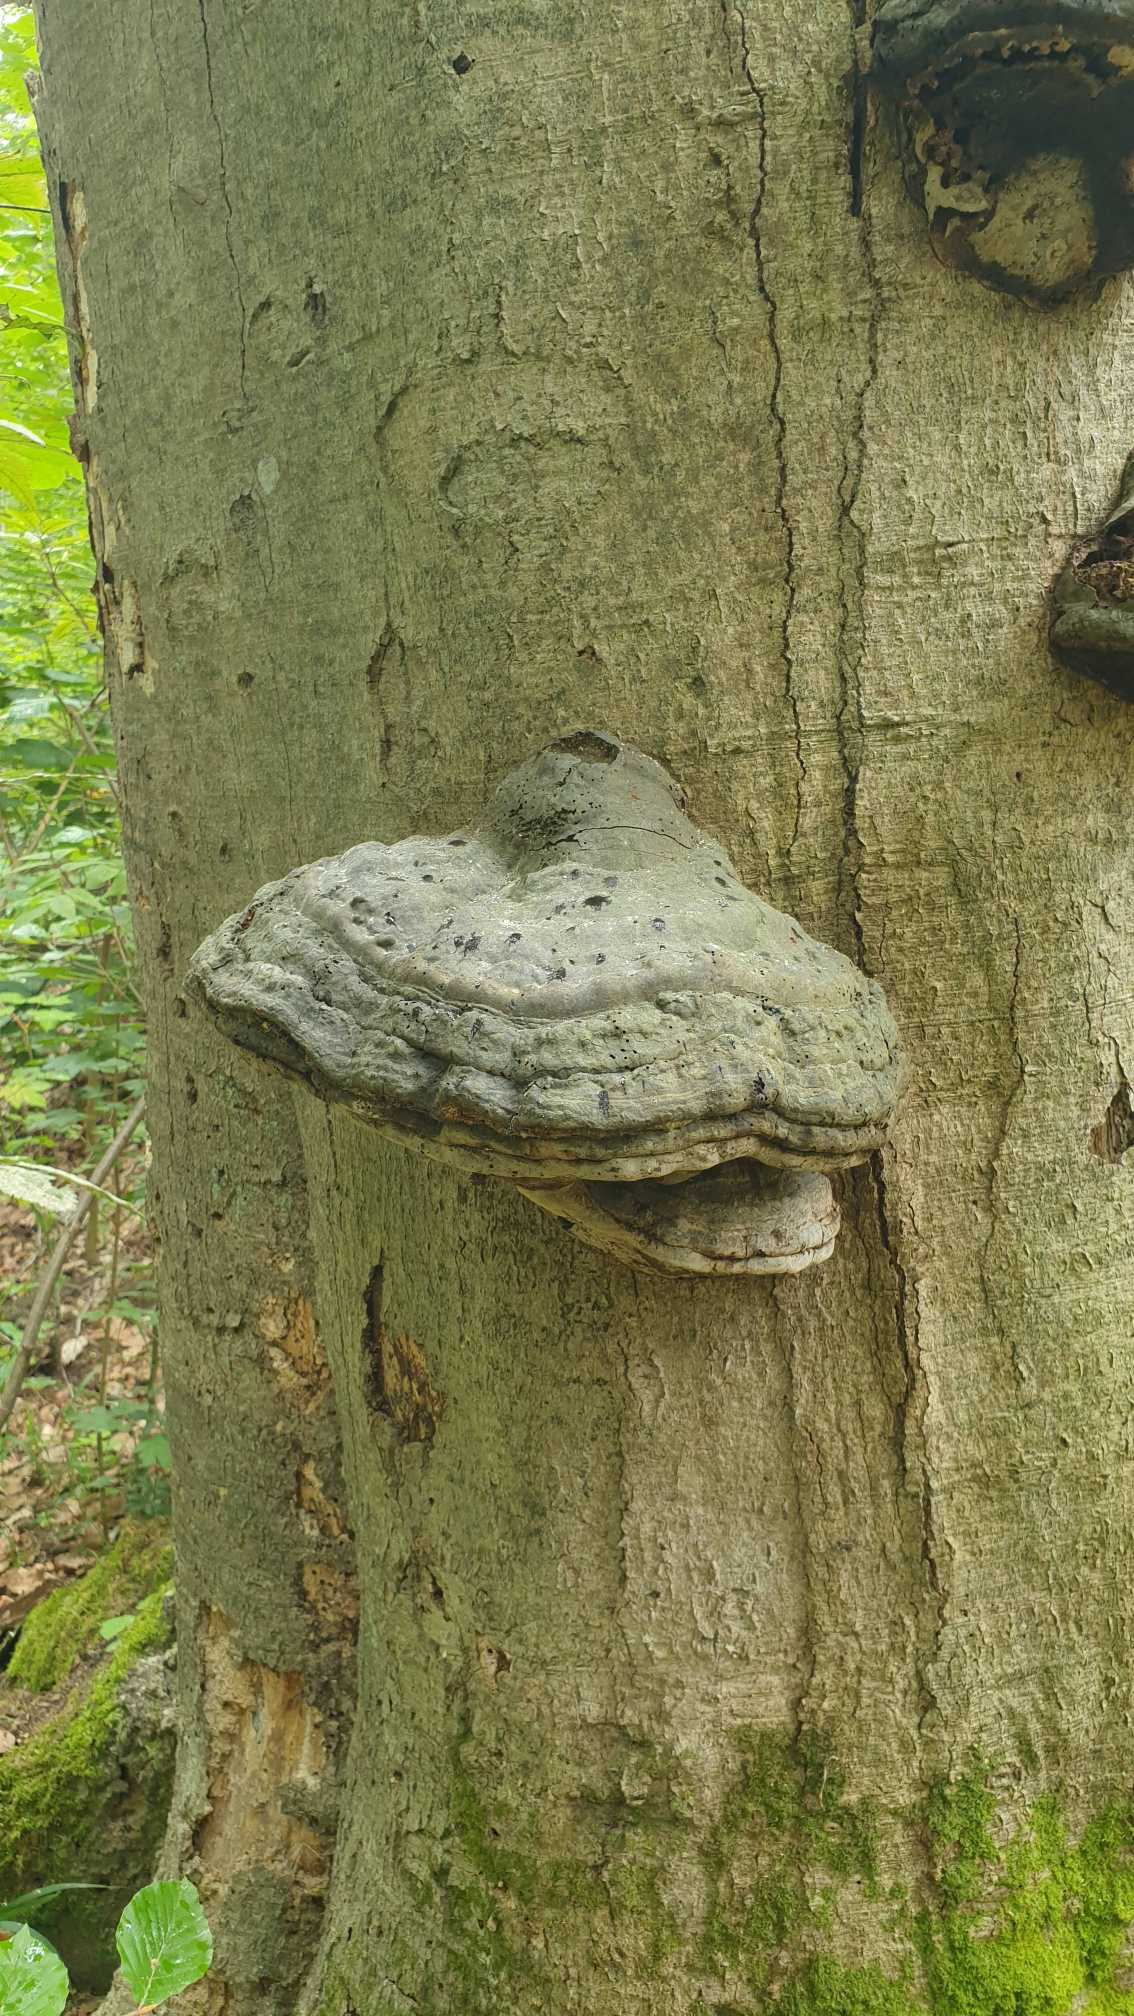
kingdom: Fungi
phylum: Basidiomycota
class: Agaricomycetes
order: Polyporales
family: Polyporaceae
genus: Fomes
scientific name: Fomes fomentarius
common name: Tøndersvamp
